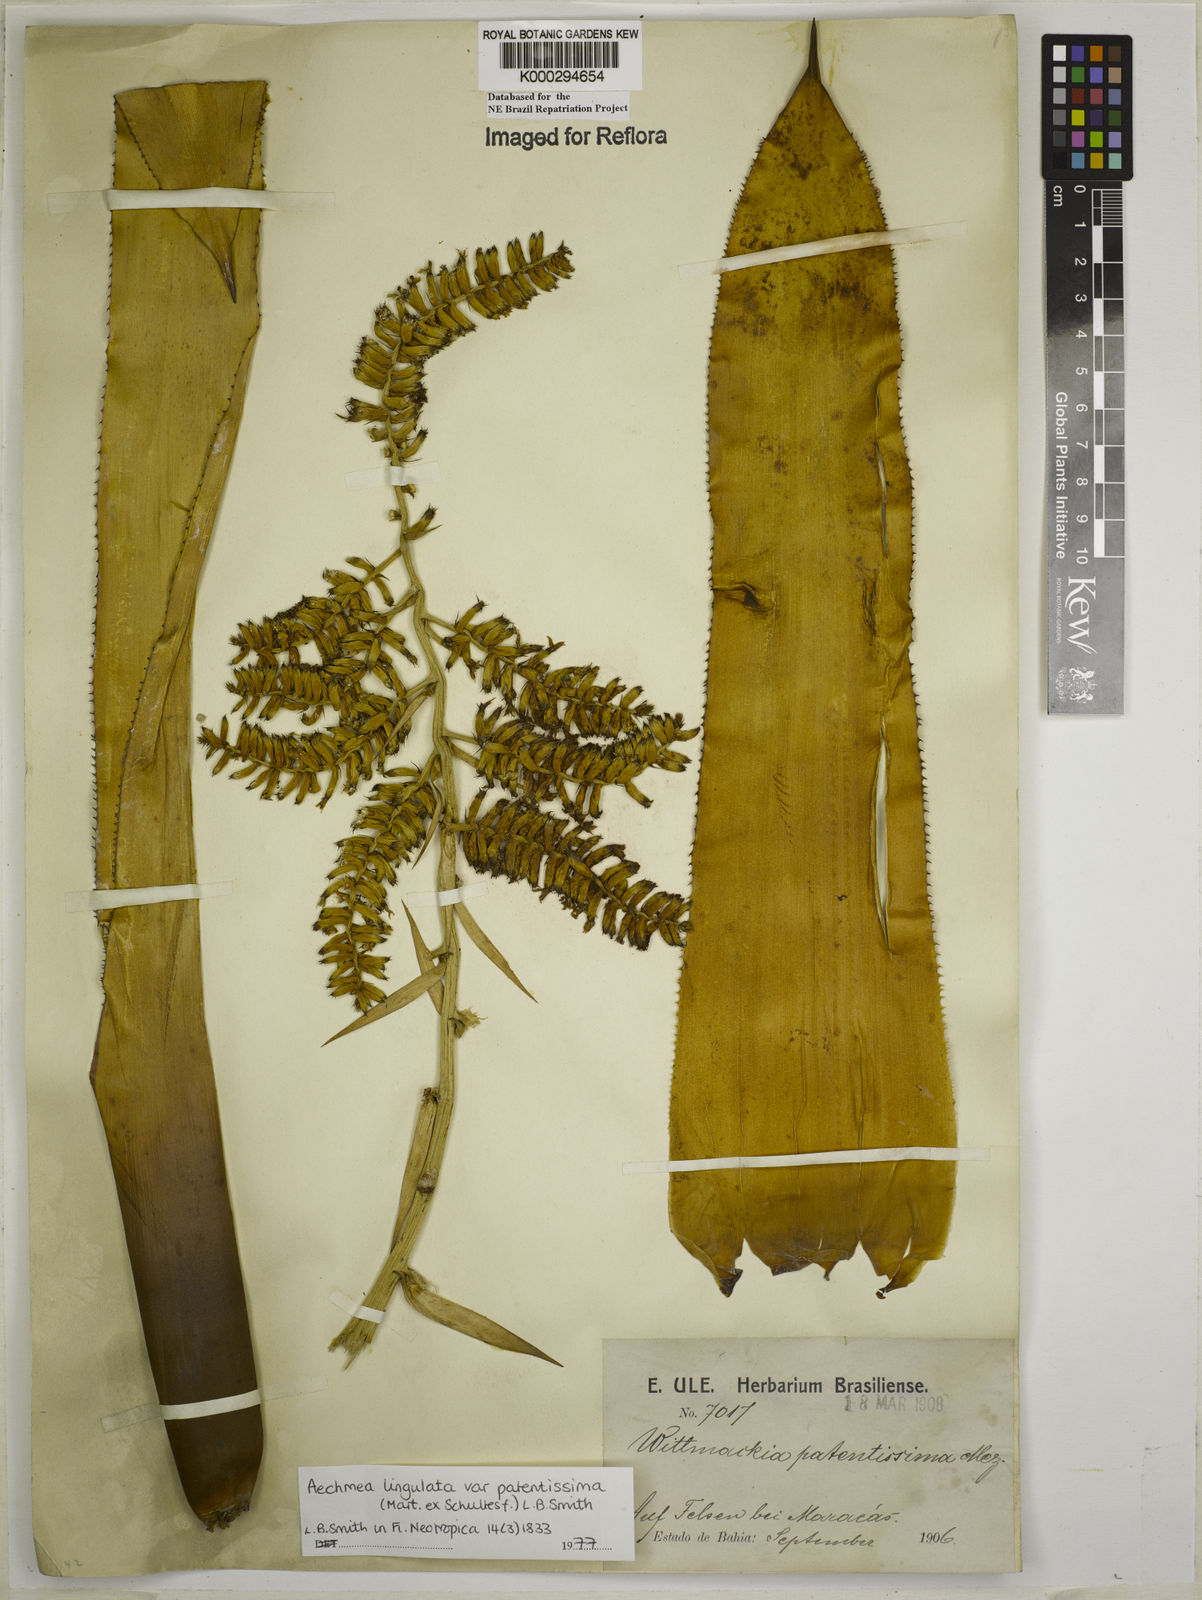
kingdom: Plantae
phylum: Tracheophyta
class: Liliopsida
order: Poales
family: Bromeliaceae
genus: Wittmackia
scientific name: Wittmackia lingulata
